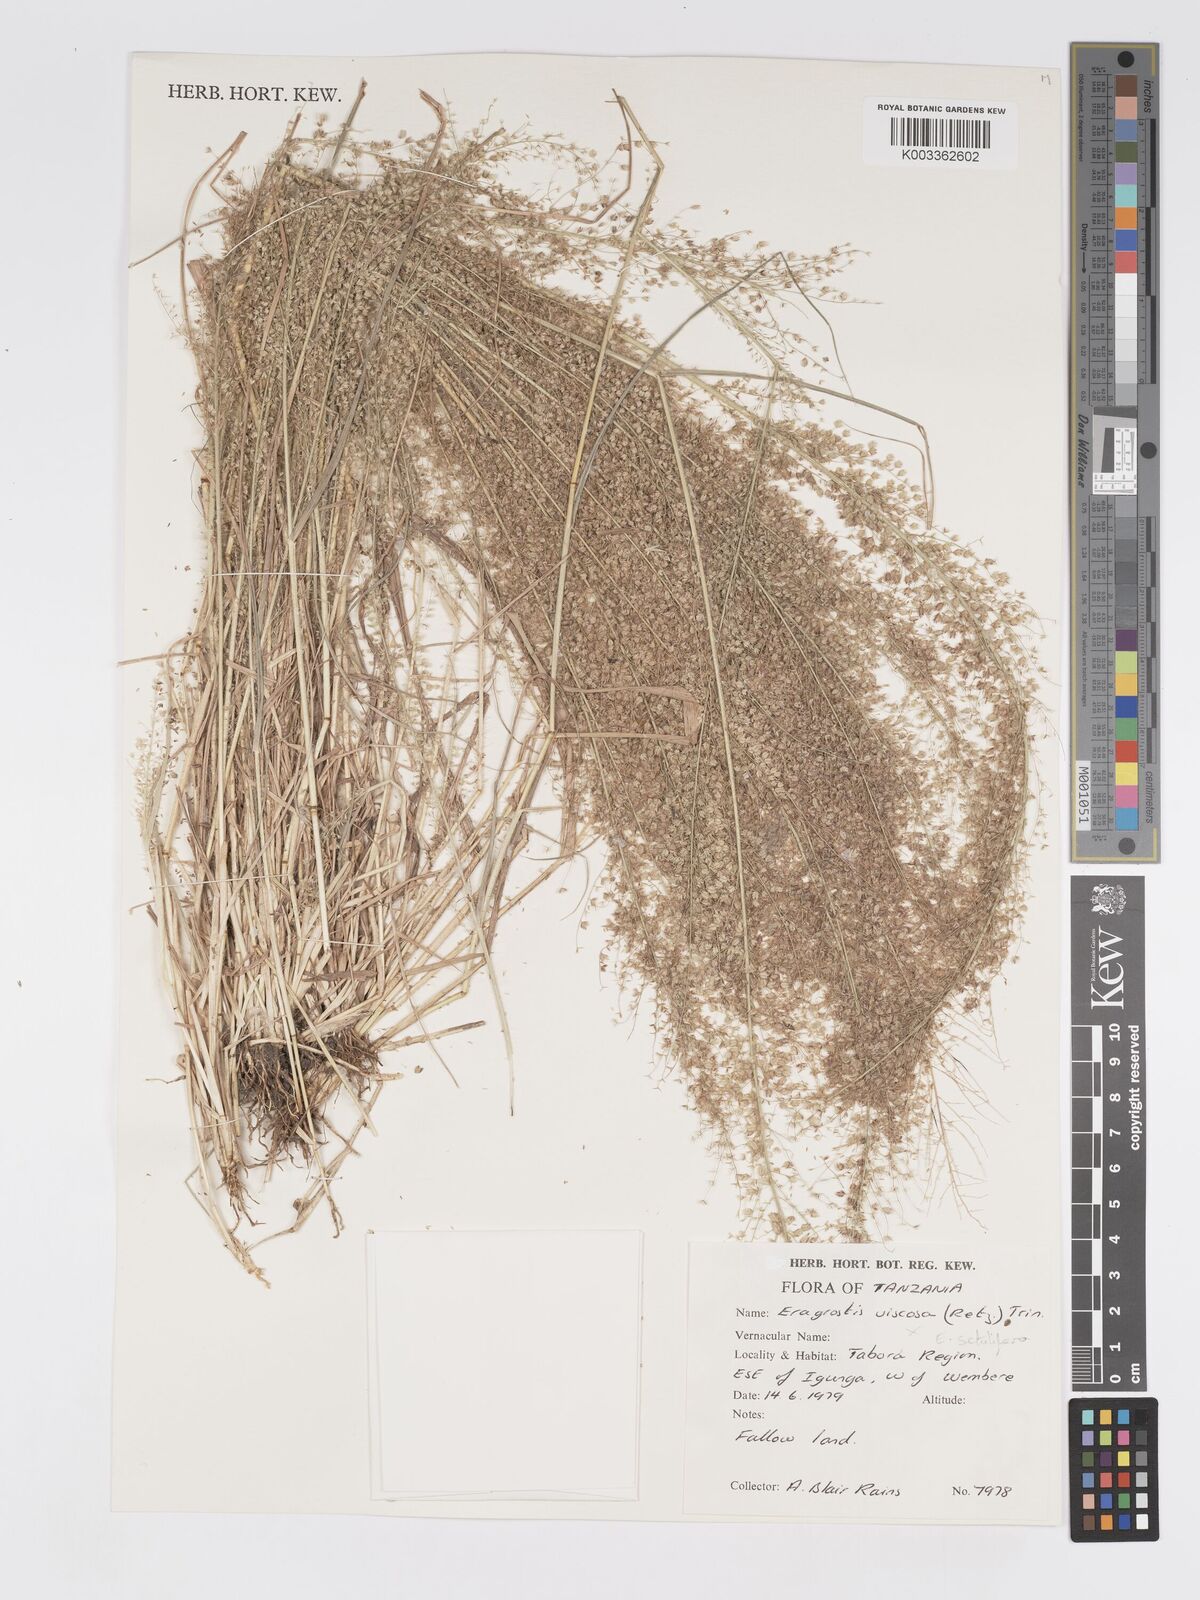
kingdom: Plantae
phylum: Tracheophyta
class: Liliopsida
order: Poales
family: Poaceae
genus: Eragrostis
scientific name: Eragrostis setulifera
